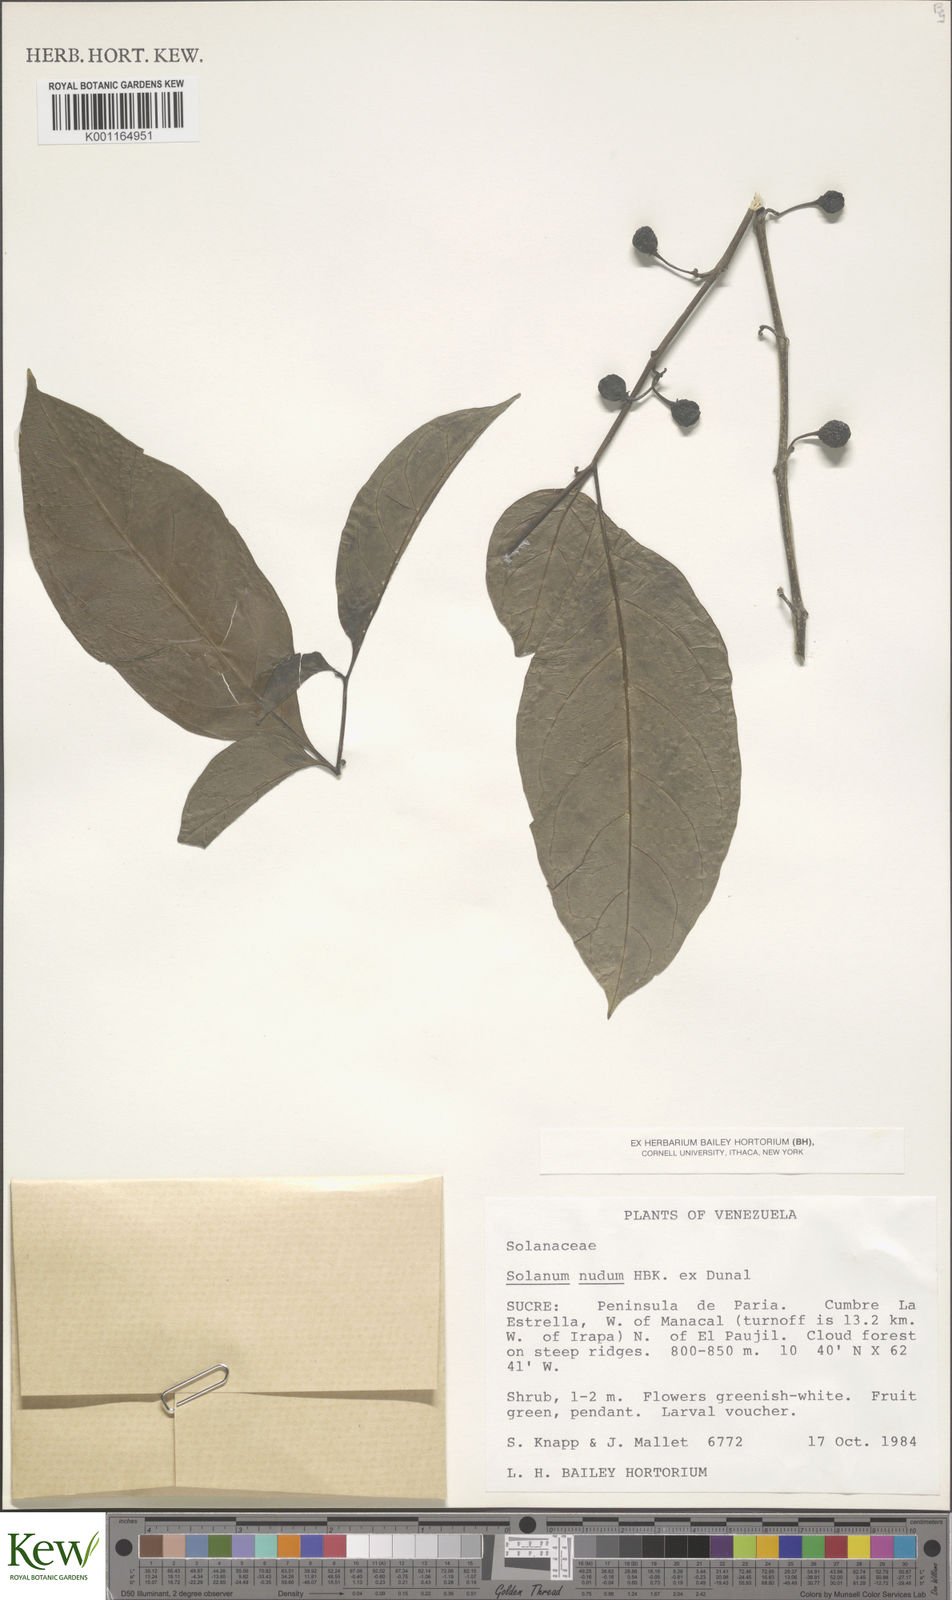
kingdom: Plantae
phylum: Tracheophyta
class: Magnoliopsida
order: Solanales
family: Solanaceae
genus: Solanum
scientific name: Solanum nudum
